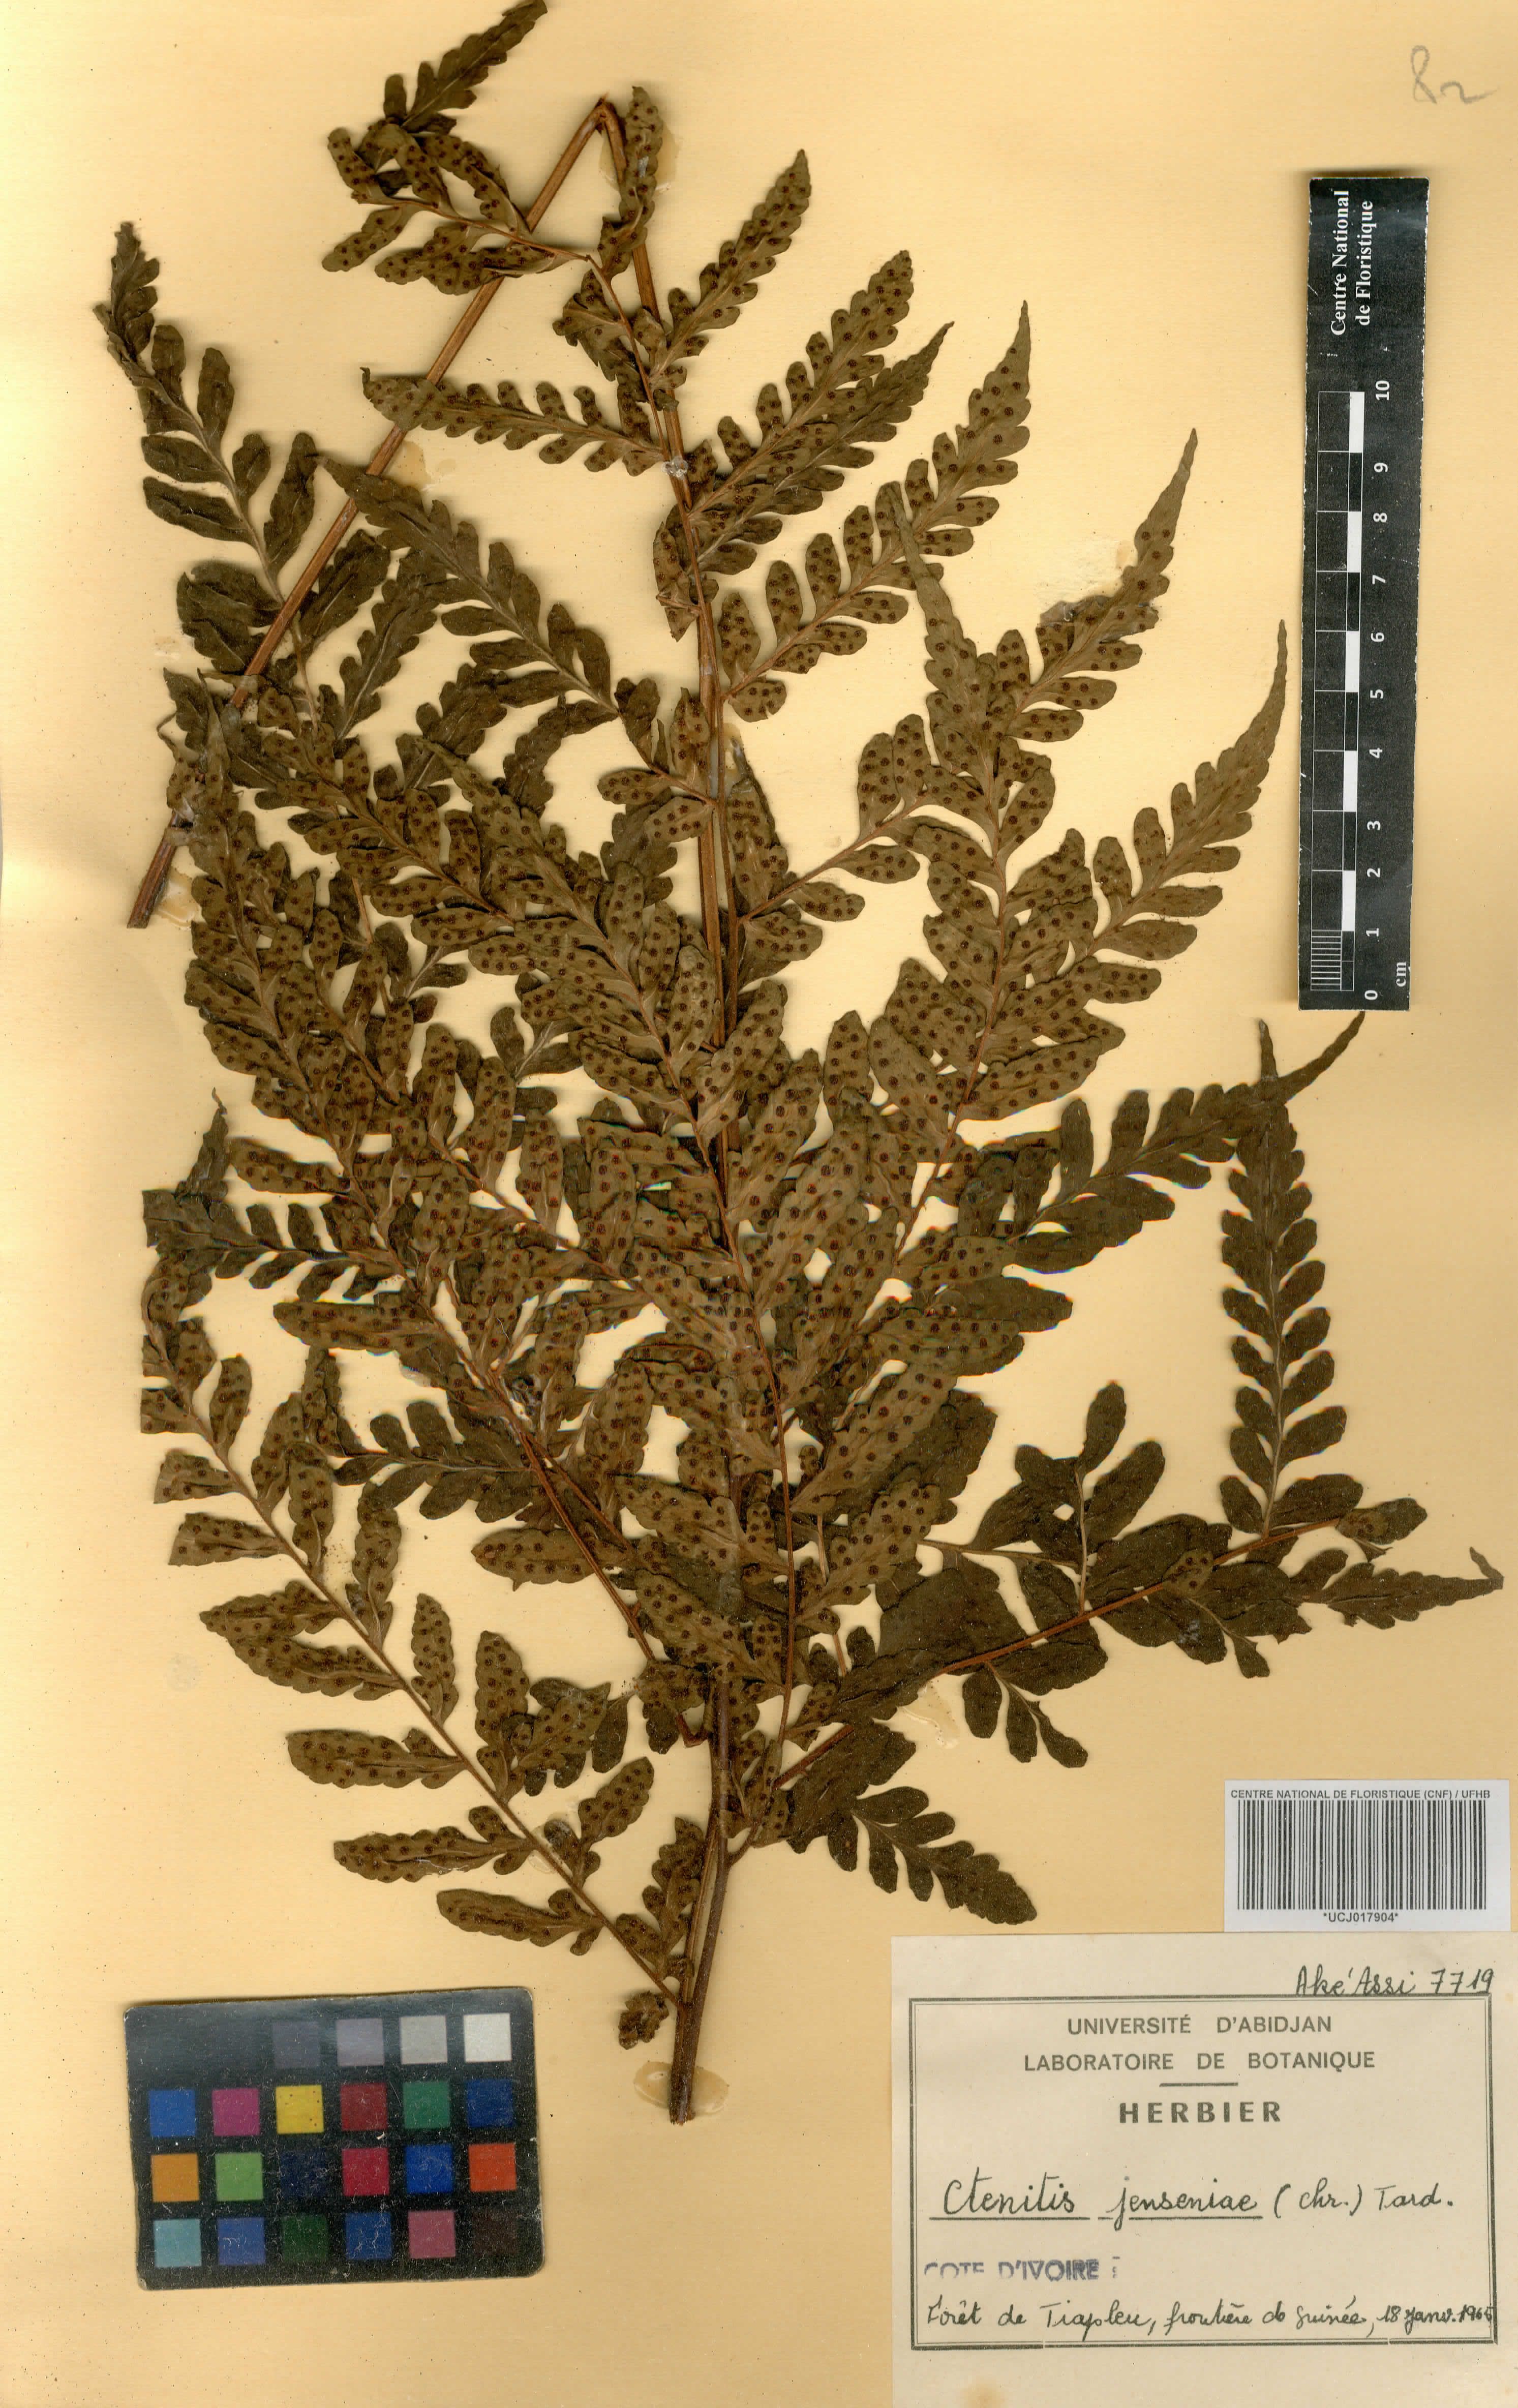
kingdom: Plantae
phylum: Tracheophyta
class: Polypodiopsida
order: Polypodiales
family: Tectariaceae
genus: Triplophyllum
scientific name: Triplophyllum jenseniae
